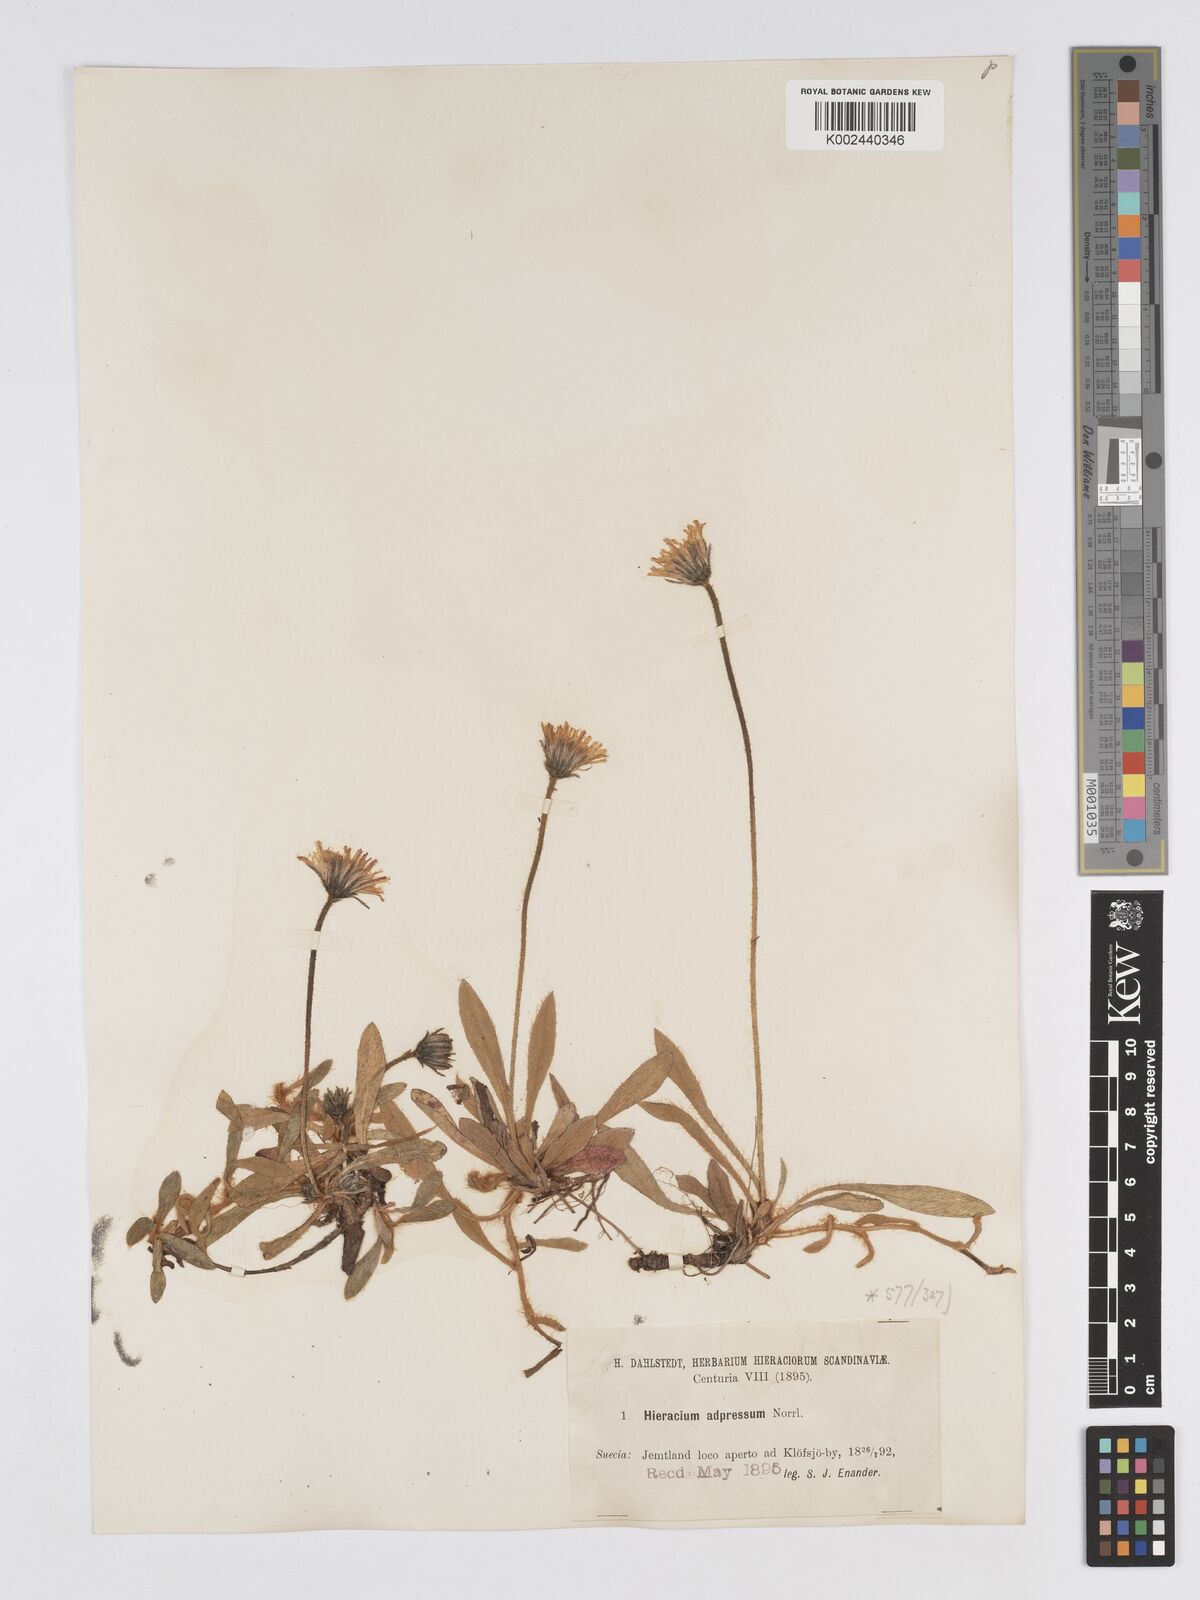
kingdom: Plantae
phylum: Tracheophyta
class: Magnoliopsida
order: Asterales
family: Asteraceae
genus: Pilosella
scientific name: Pilosella officinarum
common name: Mouse-ear hawkweed
